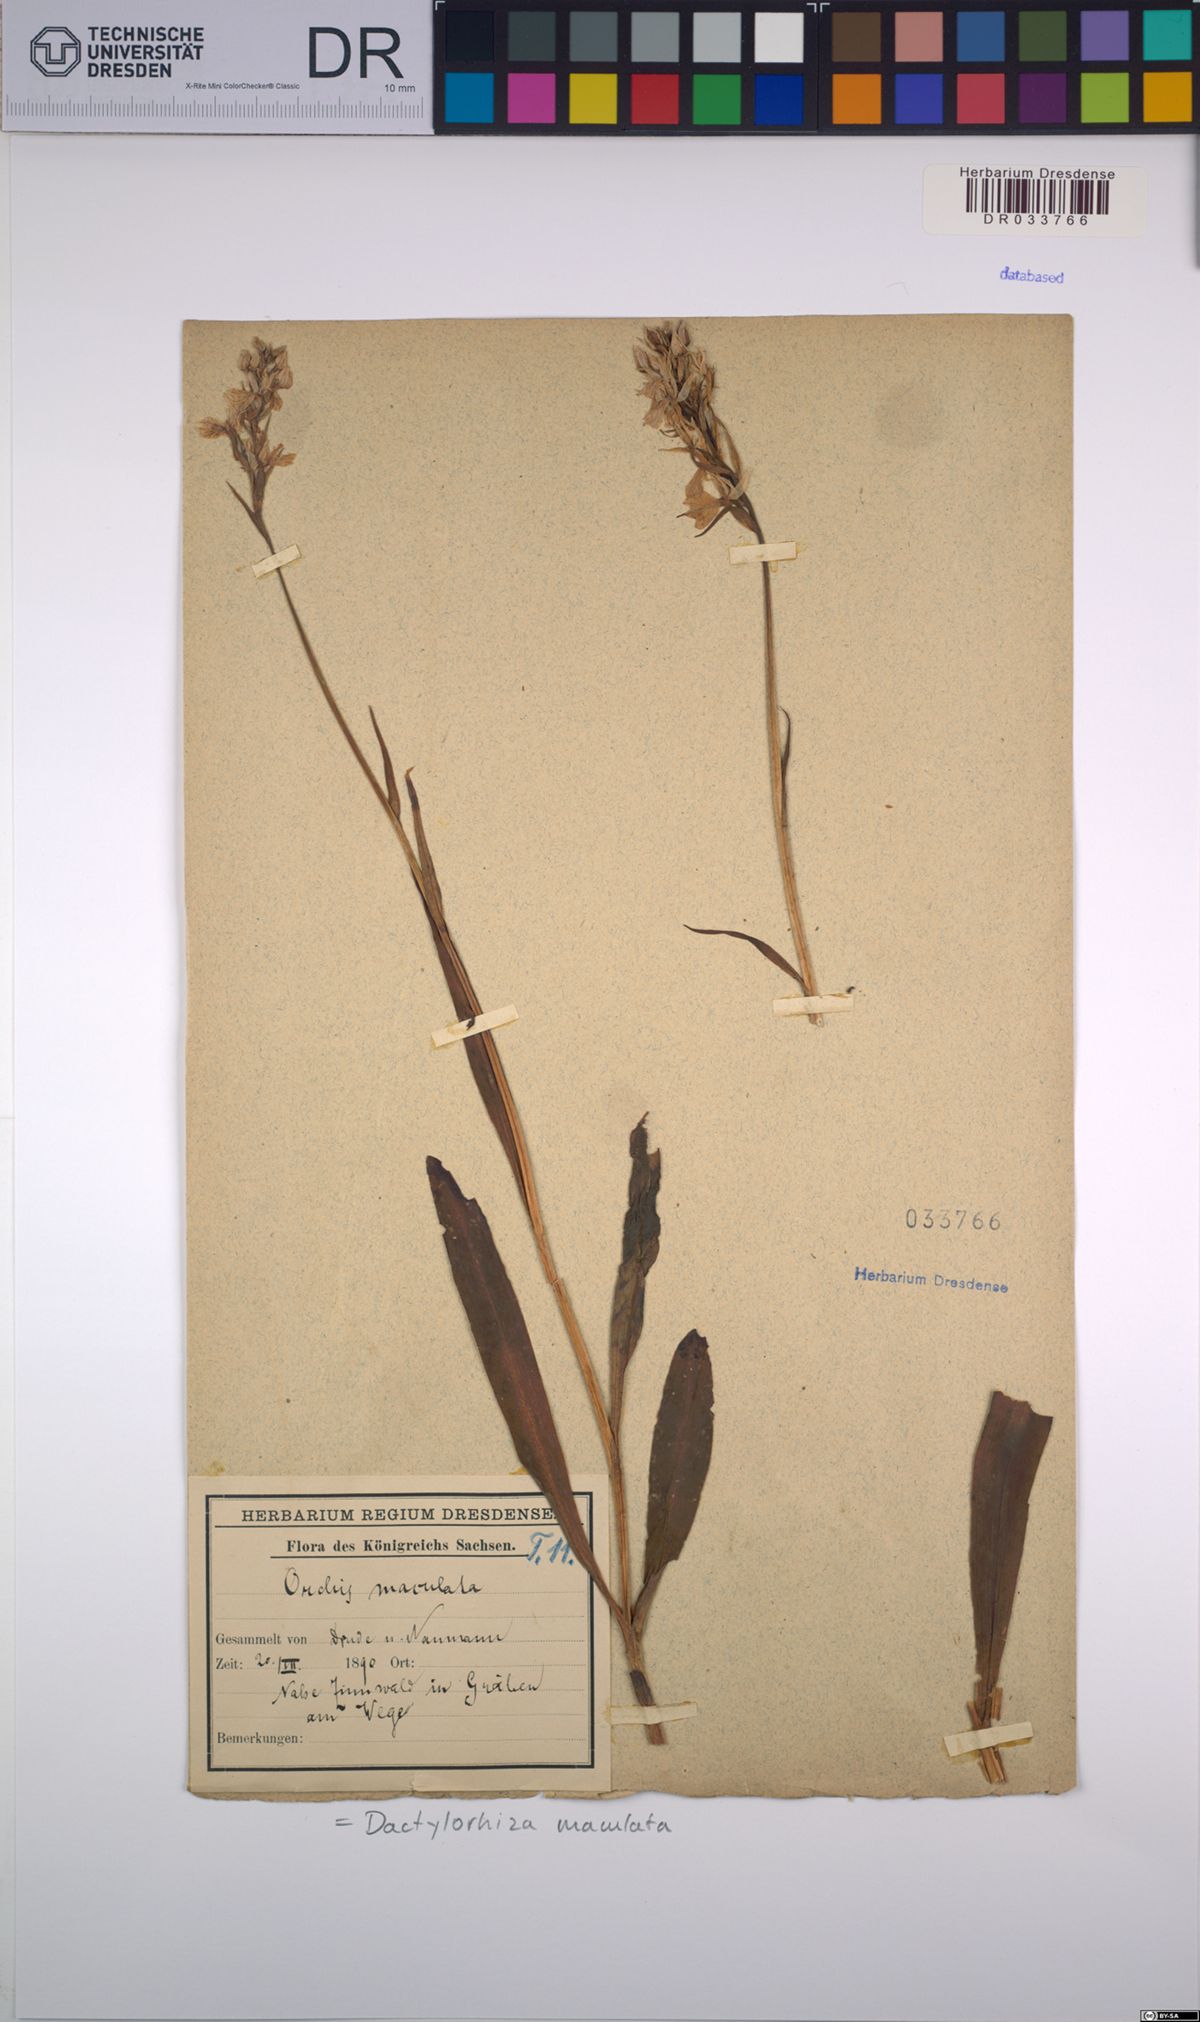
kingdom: Plantae
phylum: Tracheophyta
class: Liliopsida
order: Asparagales
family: Orchidaceae
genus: Dactylorhiza
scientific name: Dactylorhiza maculata
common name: Heath spotted-orchid
